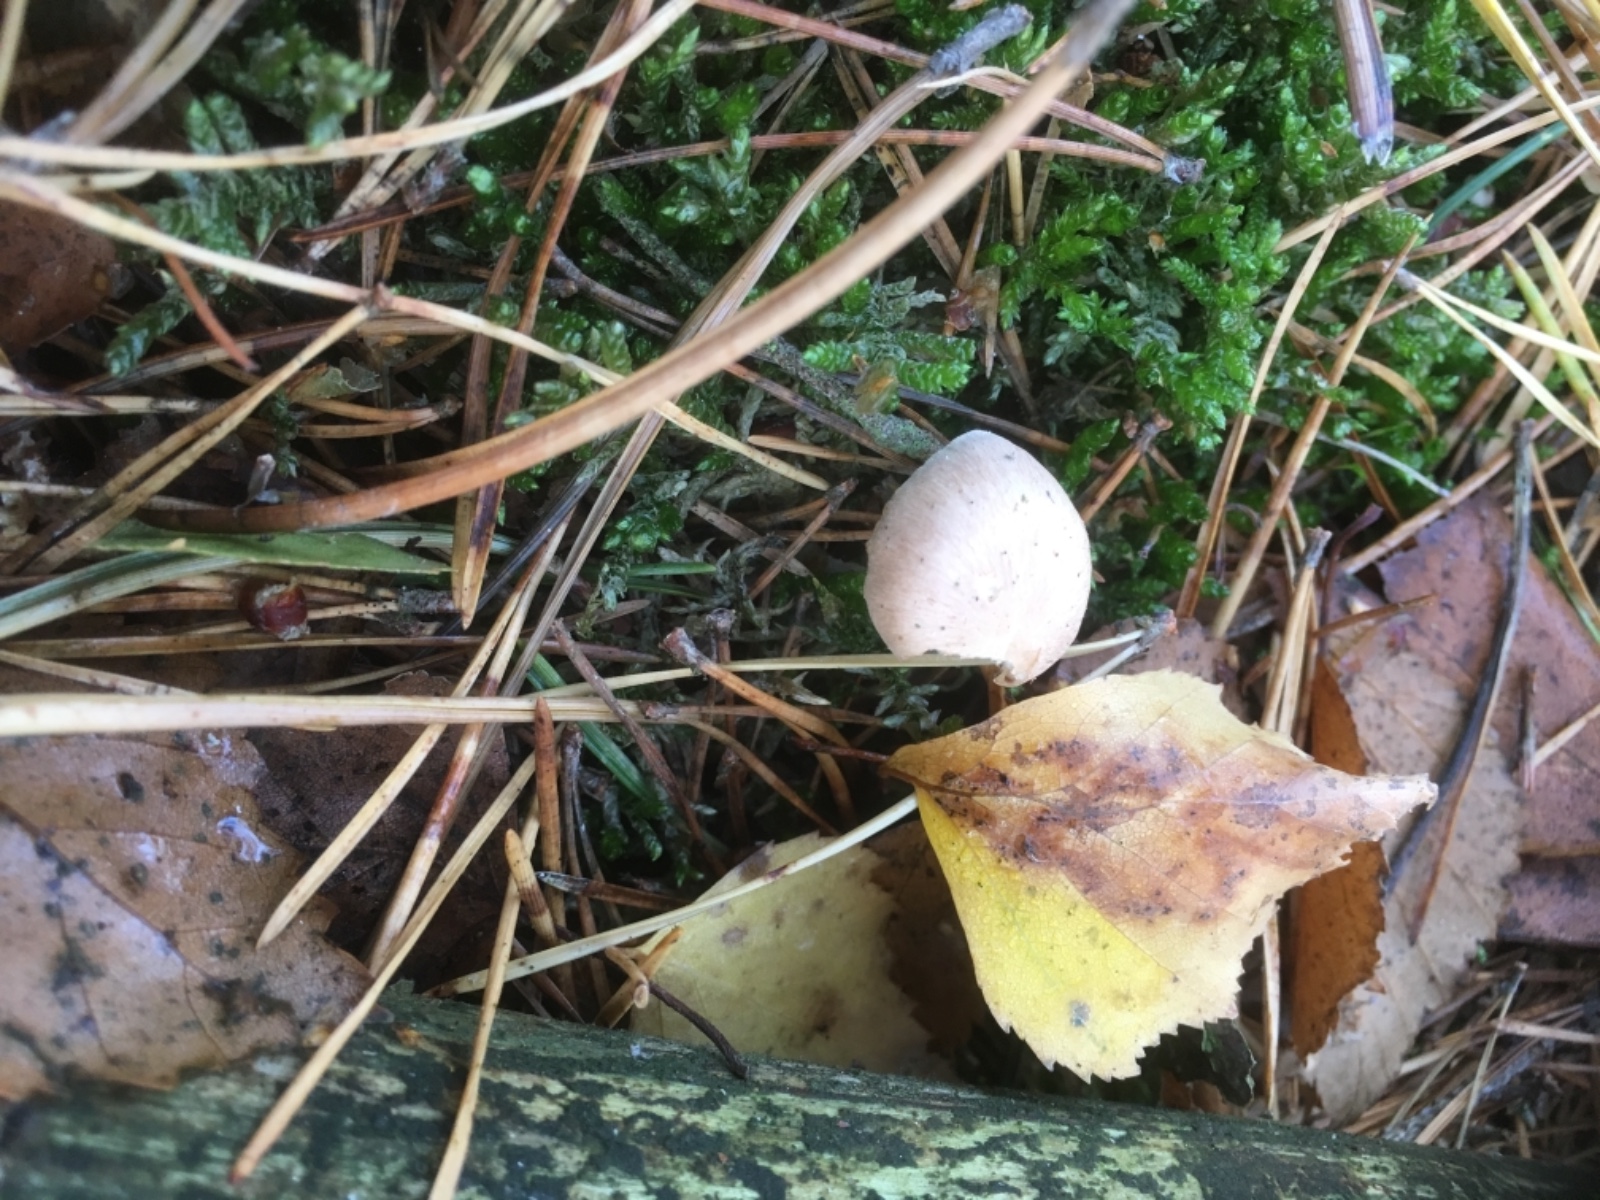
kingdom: Fungi
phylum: Basidiomycota
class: Agaricomycetes
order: Agaricales
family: Omphalotaceae
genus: Collybiopsis
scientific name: Collybiopsis peronata
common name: bestøvlet fladhat
